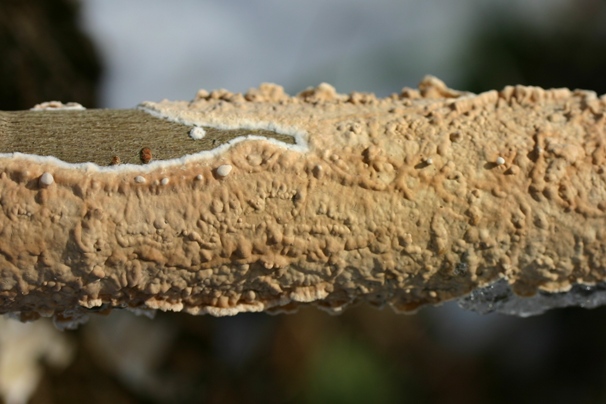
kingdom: Fungi
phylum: Basidiomycota
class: Agaricomycetes
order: Agaricales
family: Physalacriaceae
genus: Cylindrobasidium
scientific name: Cylindrobasidium evolvens
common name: sprækkehinde
